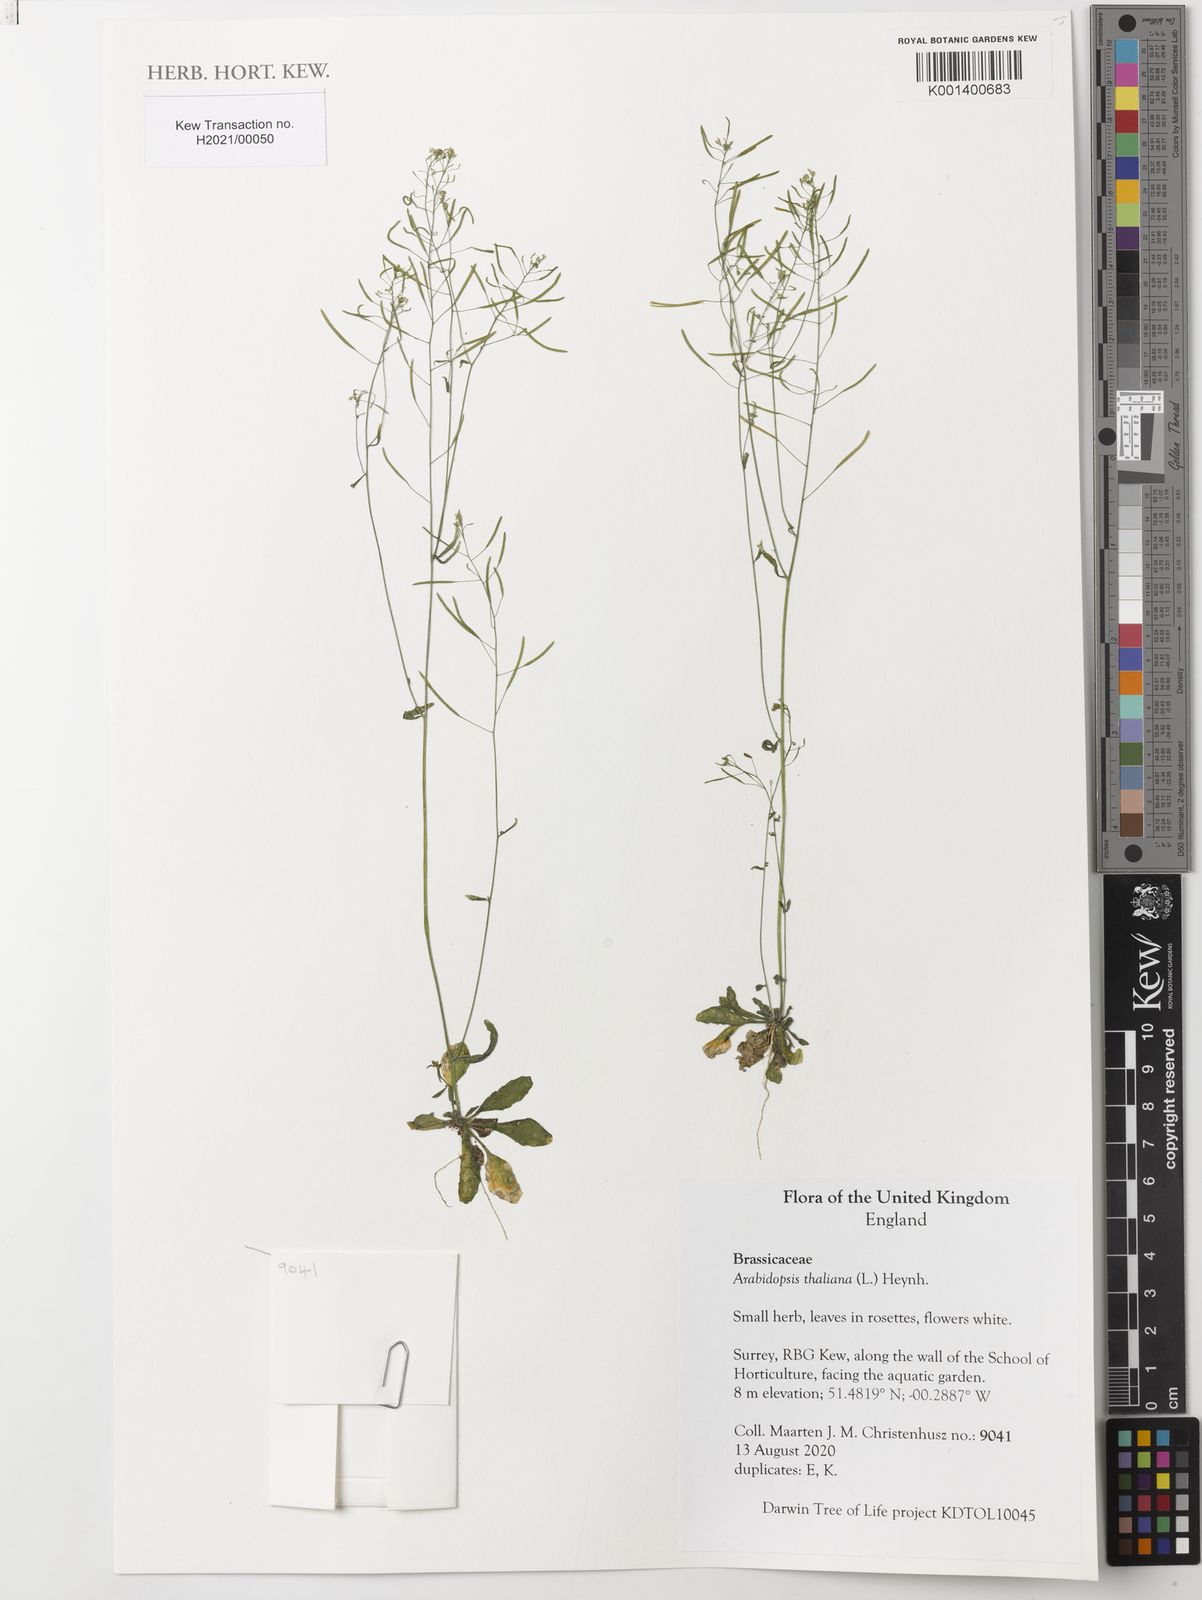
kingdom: Plantae
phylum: Tracheophyta
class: Magnoliopsida
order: Brassicales
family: Brassicaceae
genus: Arabidopsis
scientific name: Arabidopsis thaliana
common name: Thale cress
